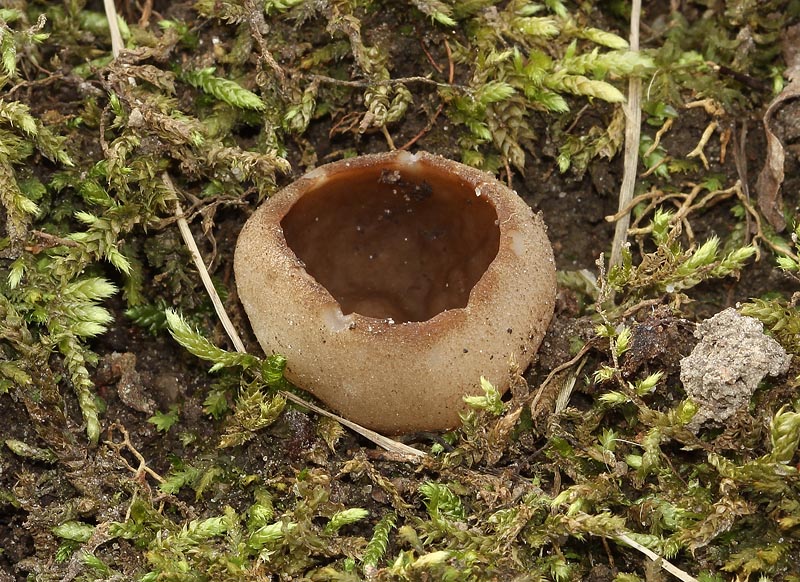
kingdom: Fungi
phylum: Ascomycota
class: Pezizomycetes
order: Pezizales
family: Morchellaceae
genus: Disciotis
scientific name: Disciotis venosa
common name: klor-bægermorkel
